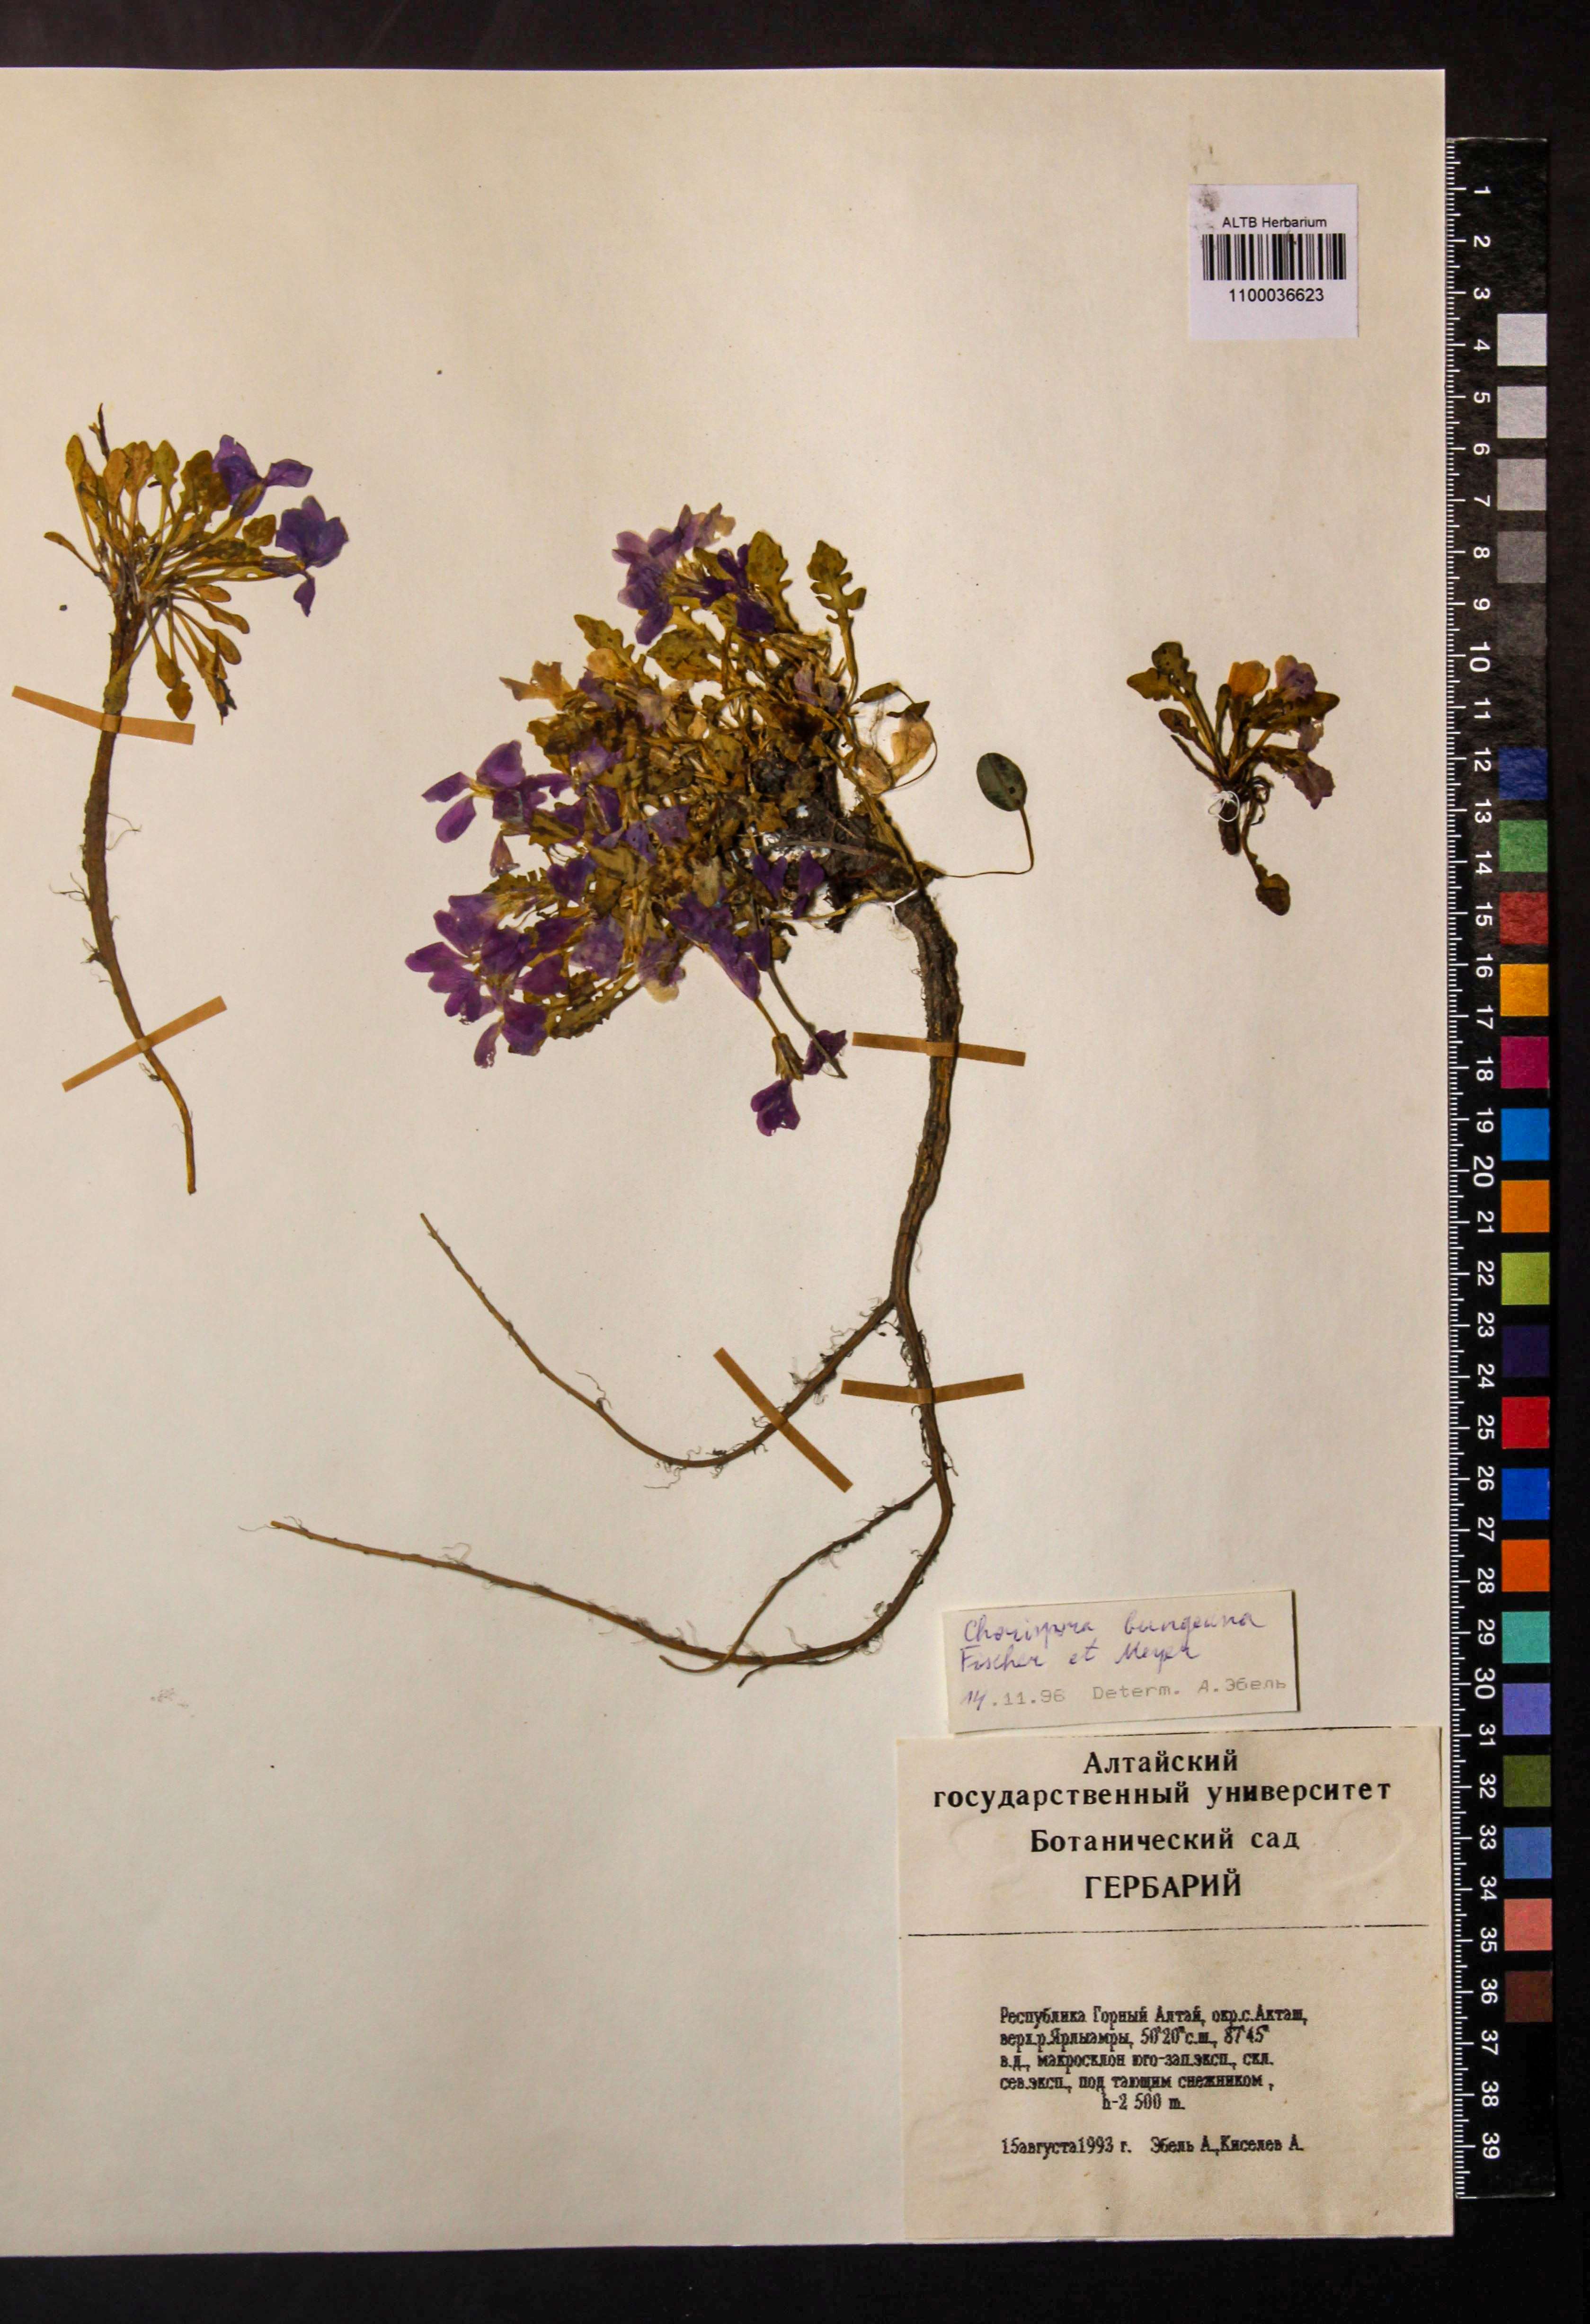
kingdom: Plantae
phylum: Tracheophyta
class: Magnoliopsida
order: Brassicales
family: Brassicaceae
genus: Chorispora
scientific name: Chorispora bungeana
